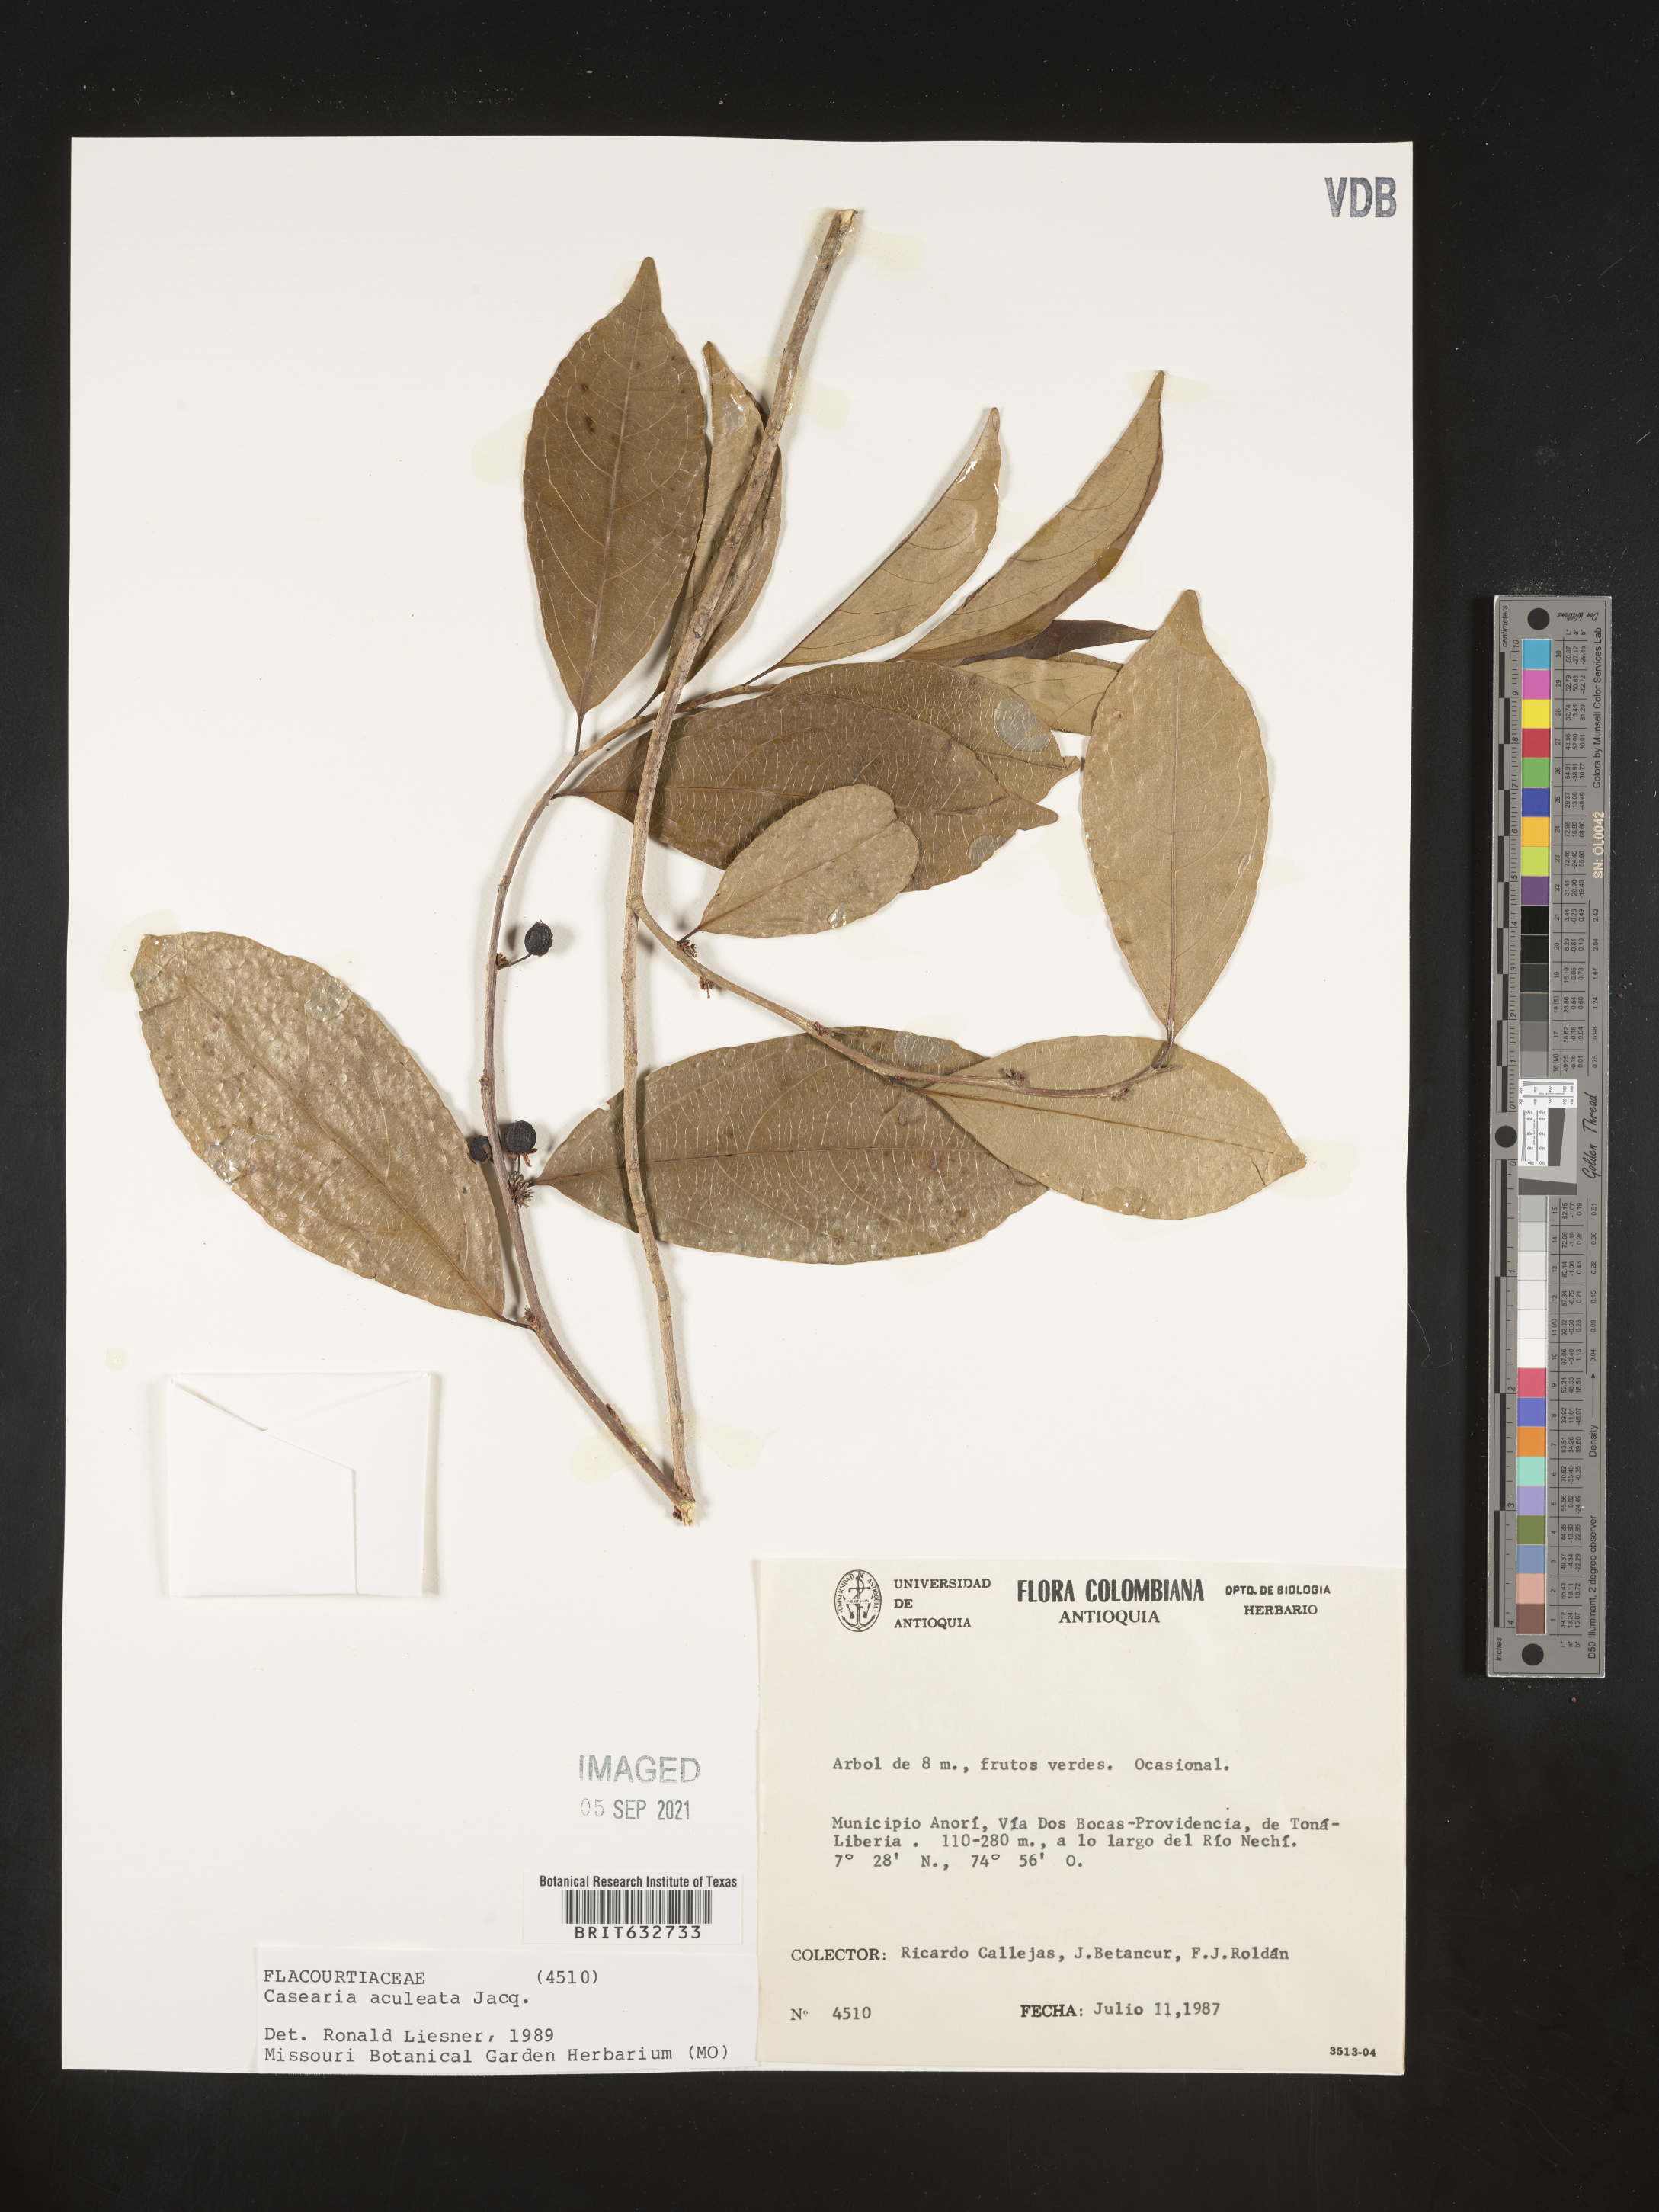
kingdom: Plantae
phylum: Tracheophyta
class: Magnoliopsida
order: Malpighiales
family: Salicaceae
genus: Casearia
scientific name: Casearia
